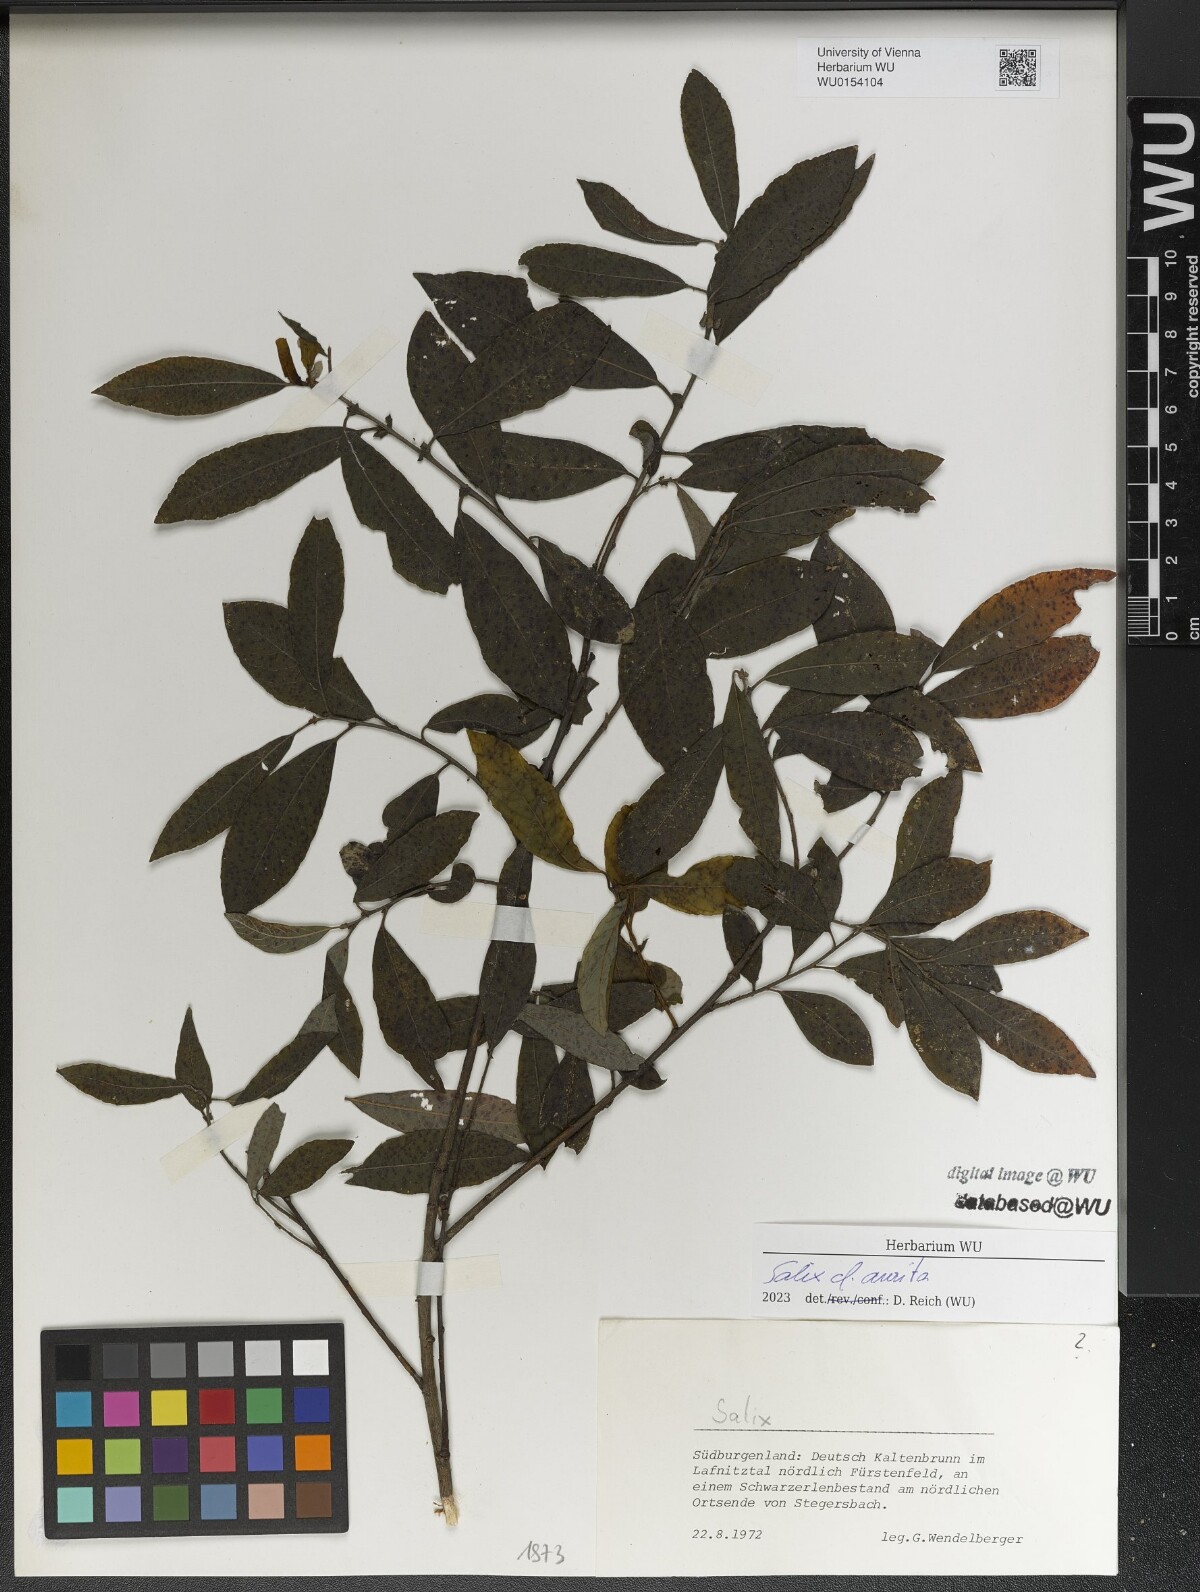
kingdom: Plantae
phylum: Tracheophyta
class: Magnoliopsida
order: Malpighiales
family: Salicaceae
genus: Salix
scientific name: Salix aurita
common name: Eared willow
